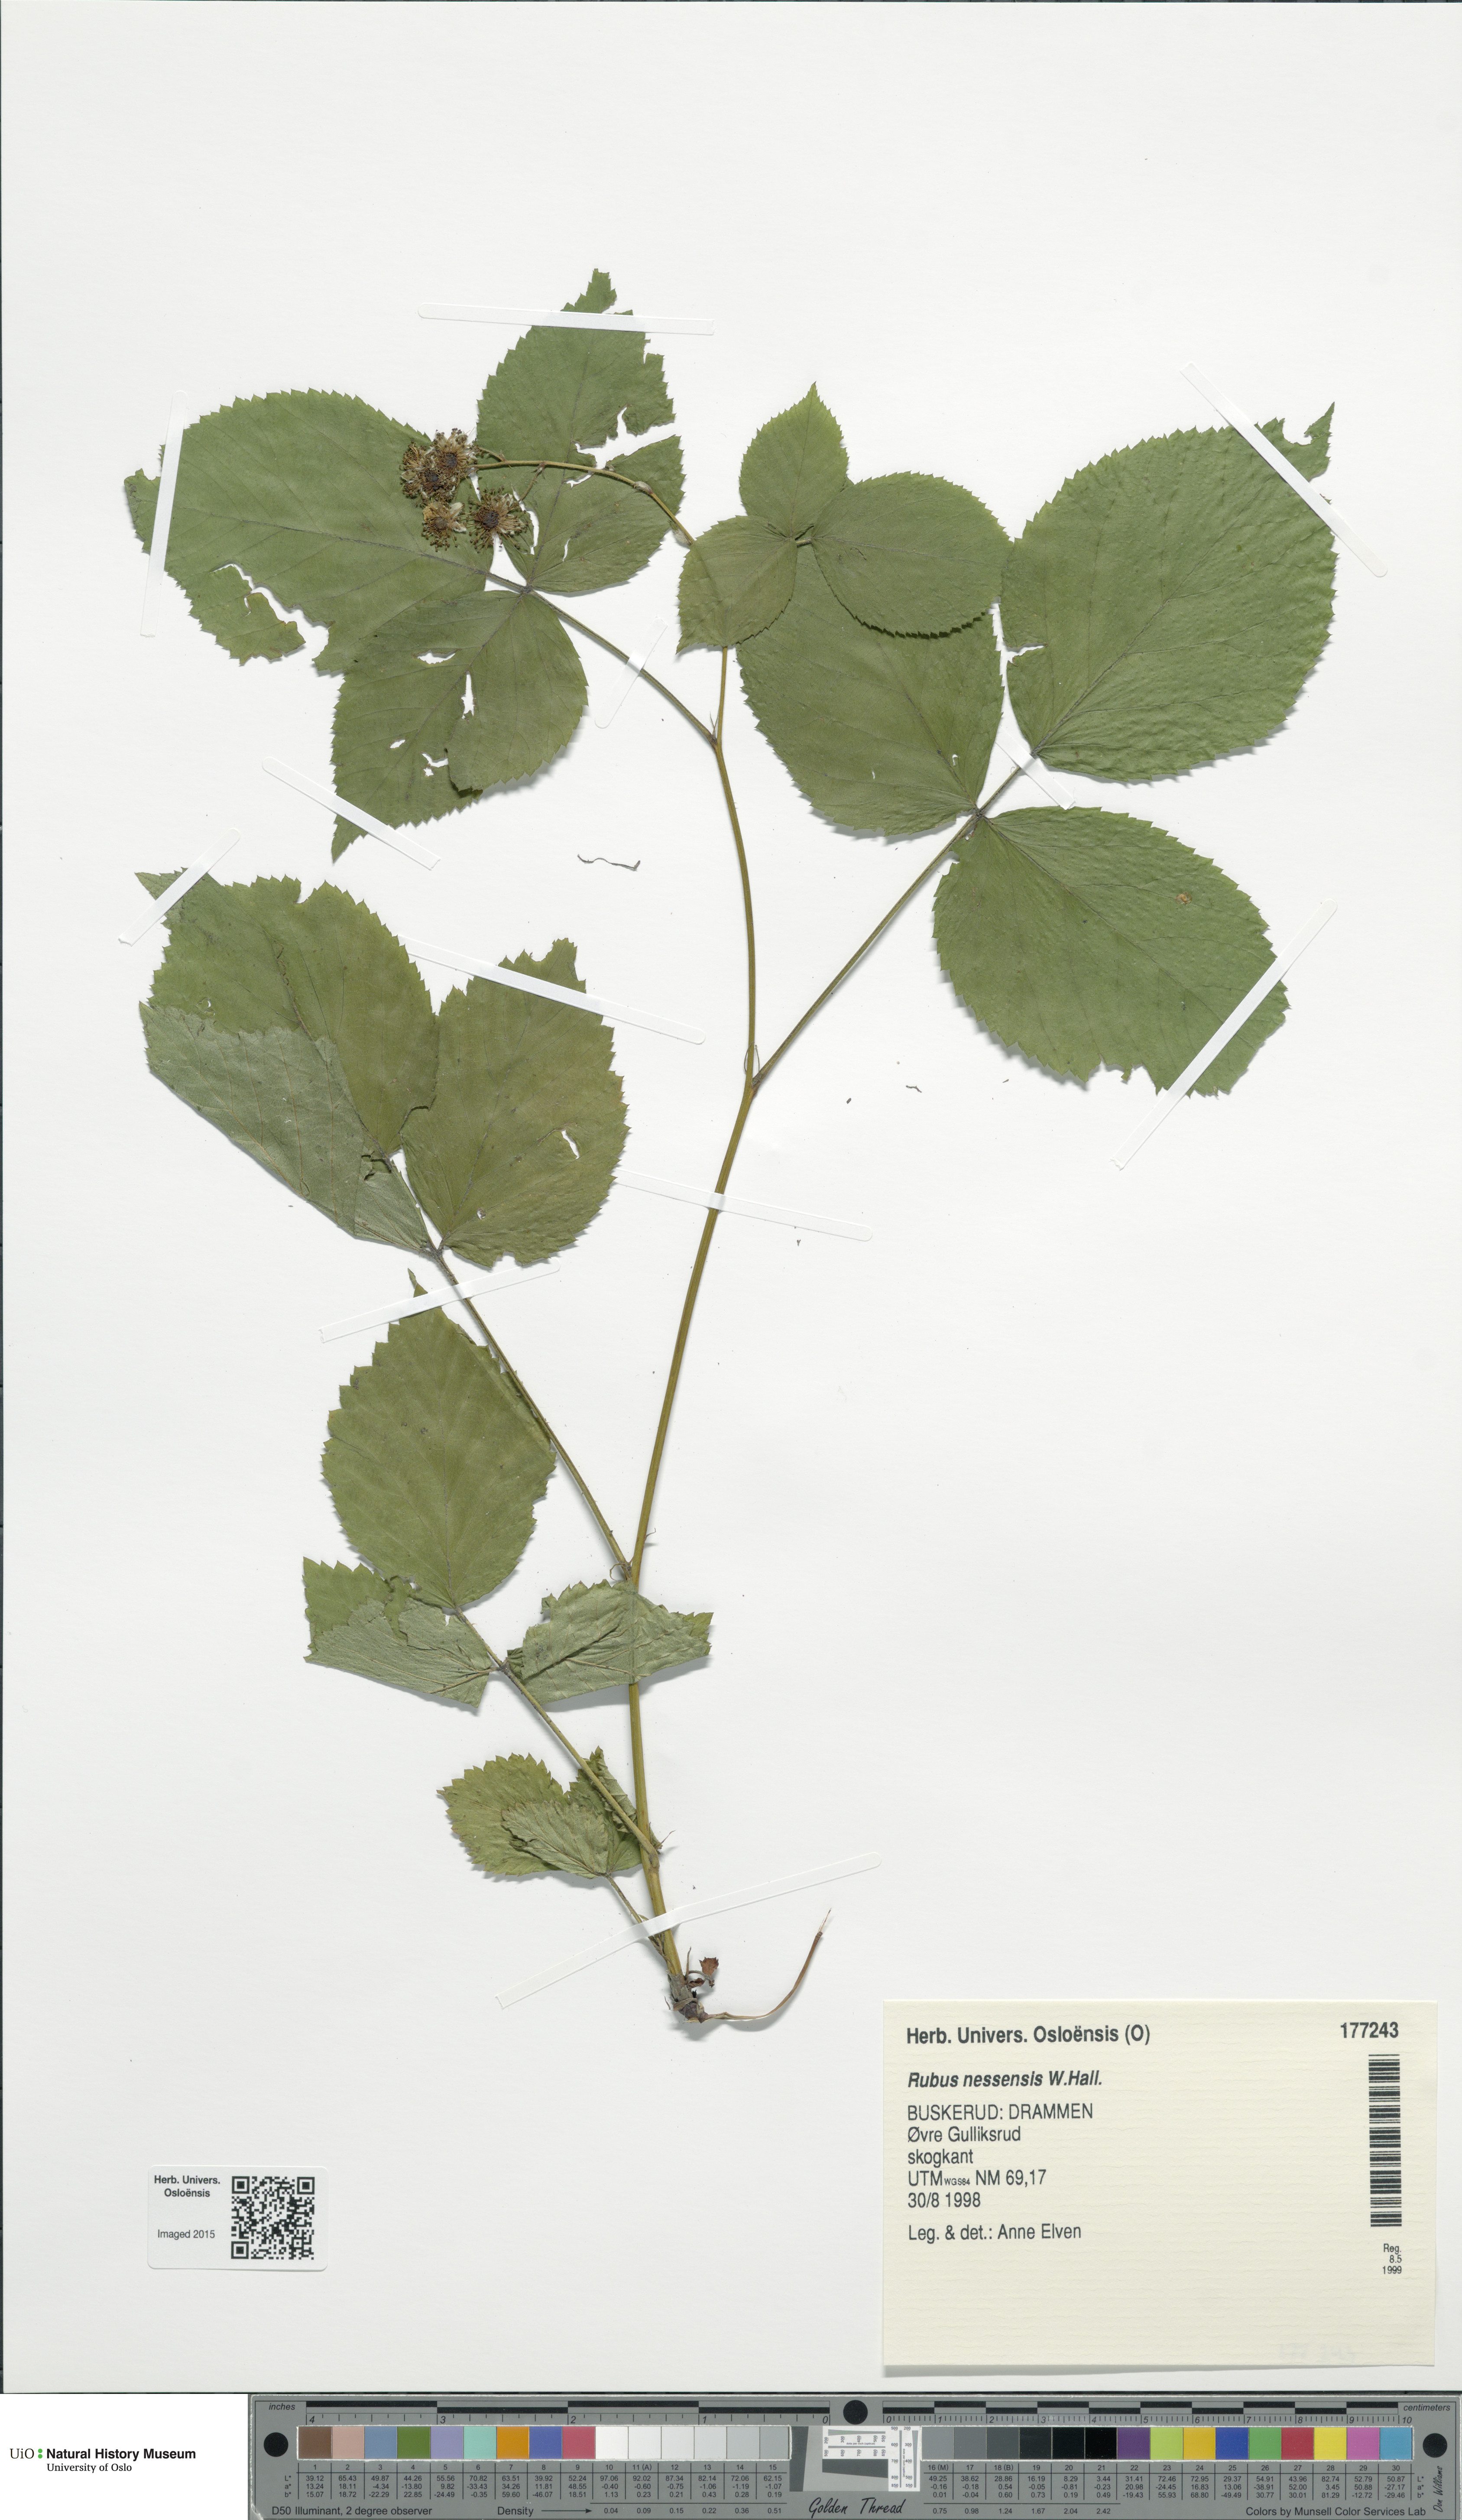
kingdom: Plantae
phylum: Tracheophyta
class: Magnoliopsida
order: Rosales
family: Rosaceae
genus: Rubus
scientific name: Rubus polonicus
